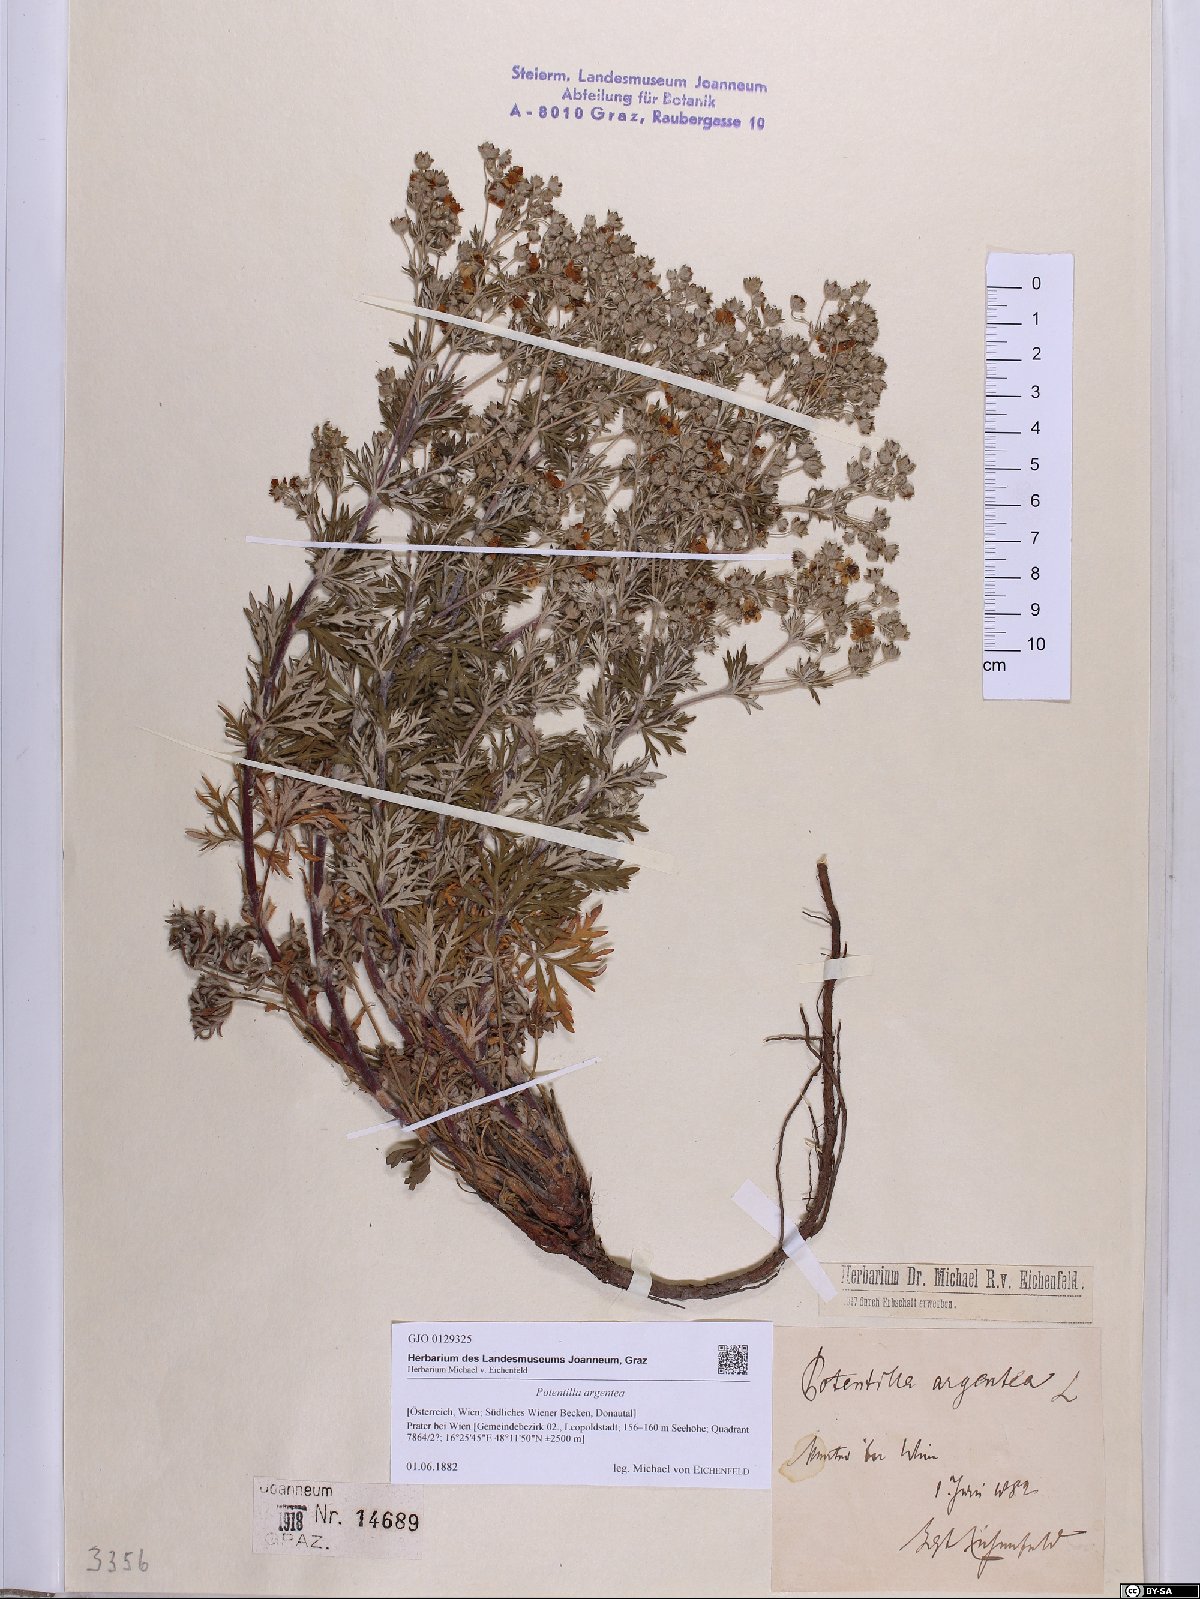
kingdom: Plantae
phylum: Tracheophyta
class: Magnoliopsida
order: Rosales
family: Rosaceae
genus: Potentilla
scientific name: Potentilla argentea
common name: Hoary cinquefoil
